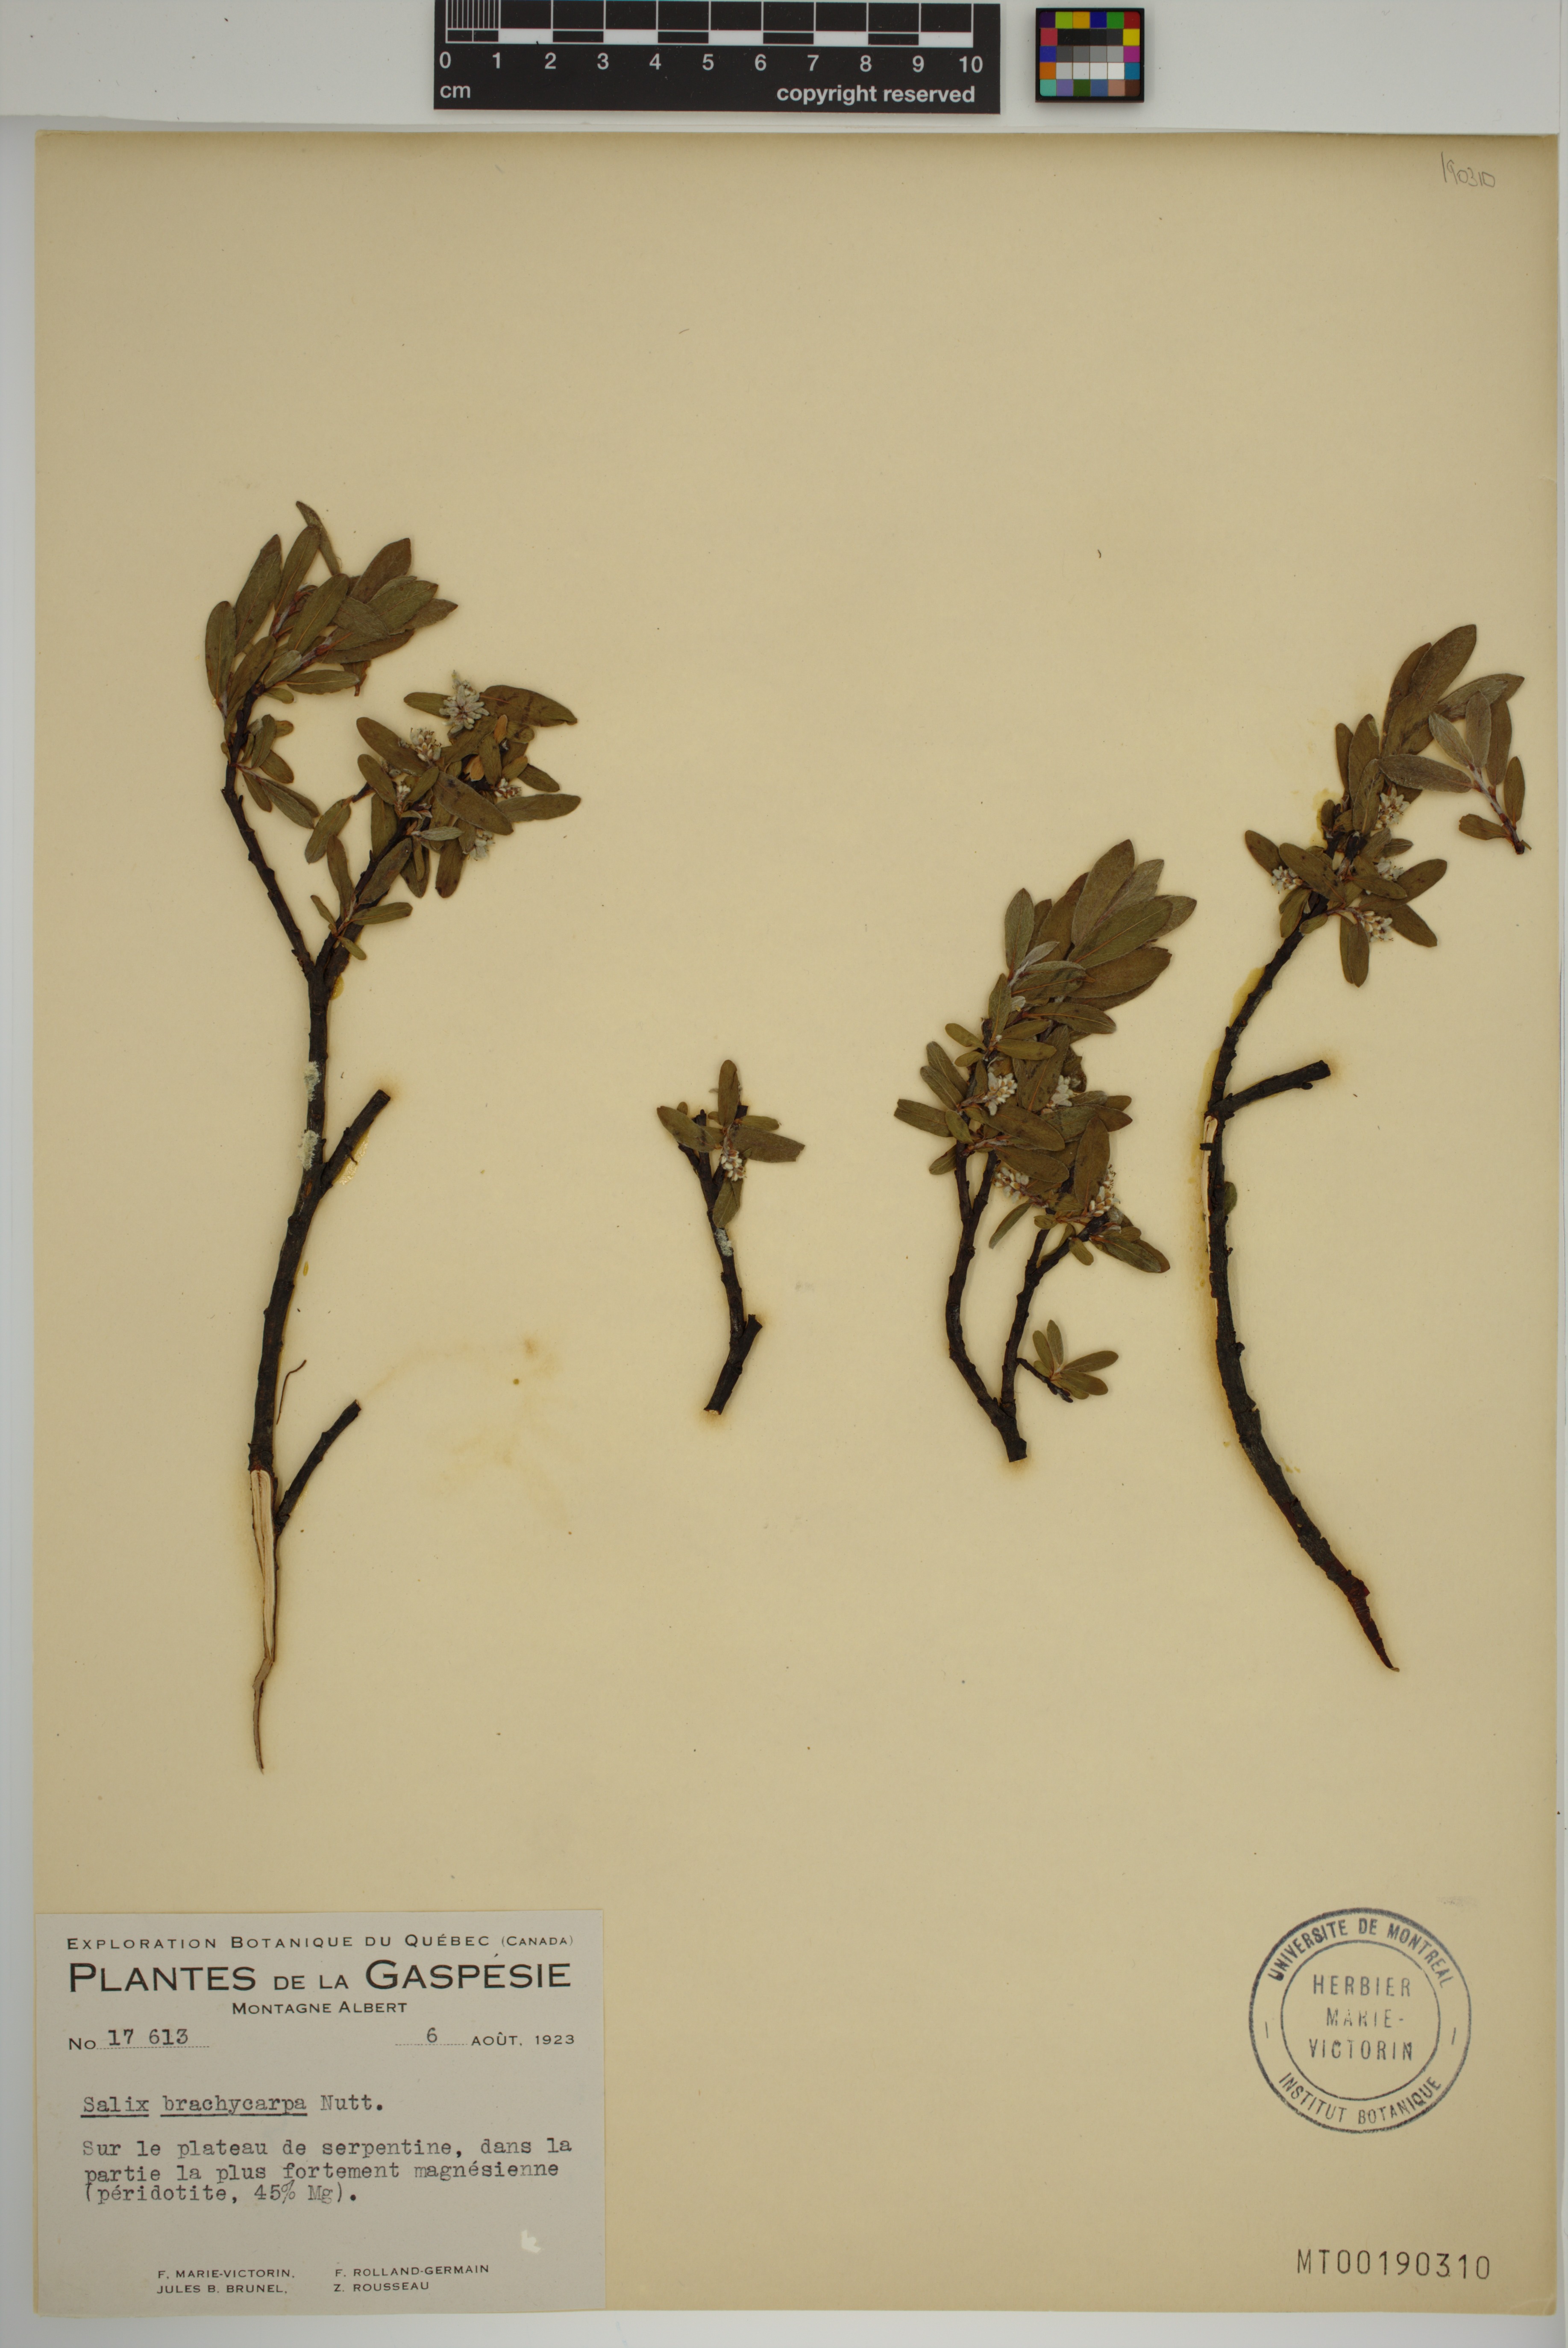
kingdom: Plantae
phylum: Tracheophyta
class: Magnoliopsida
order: Malpighiales
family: Salicaceae
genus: Salix
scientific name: Salix brachycarpa
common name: Barren-ground willow
